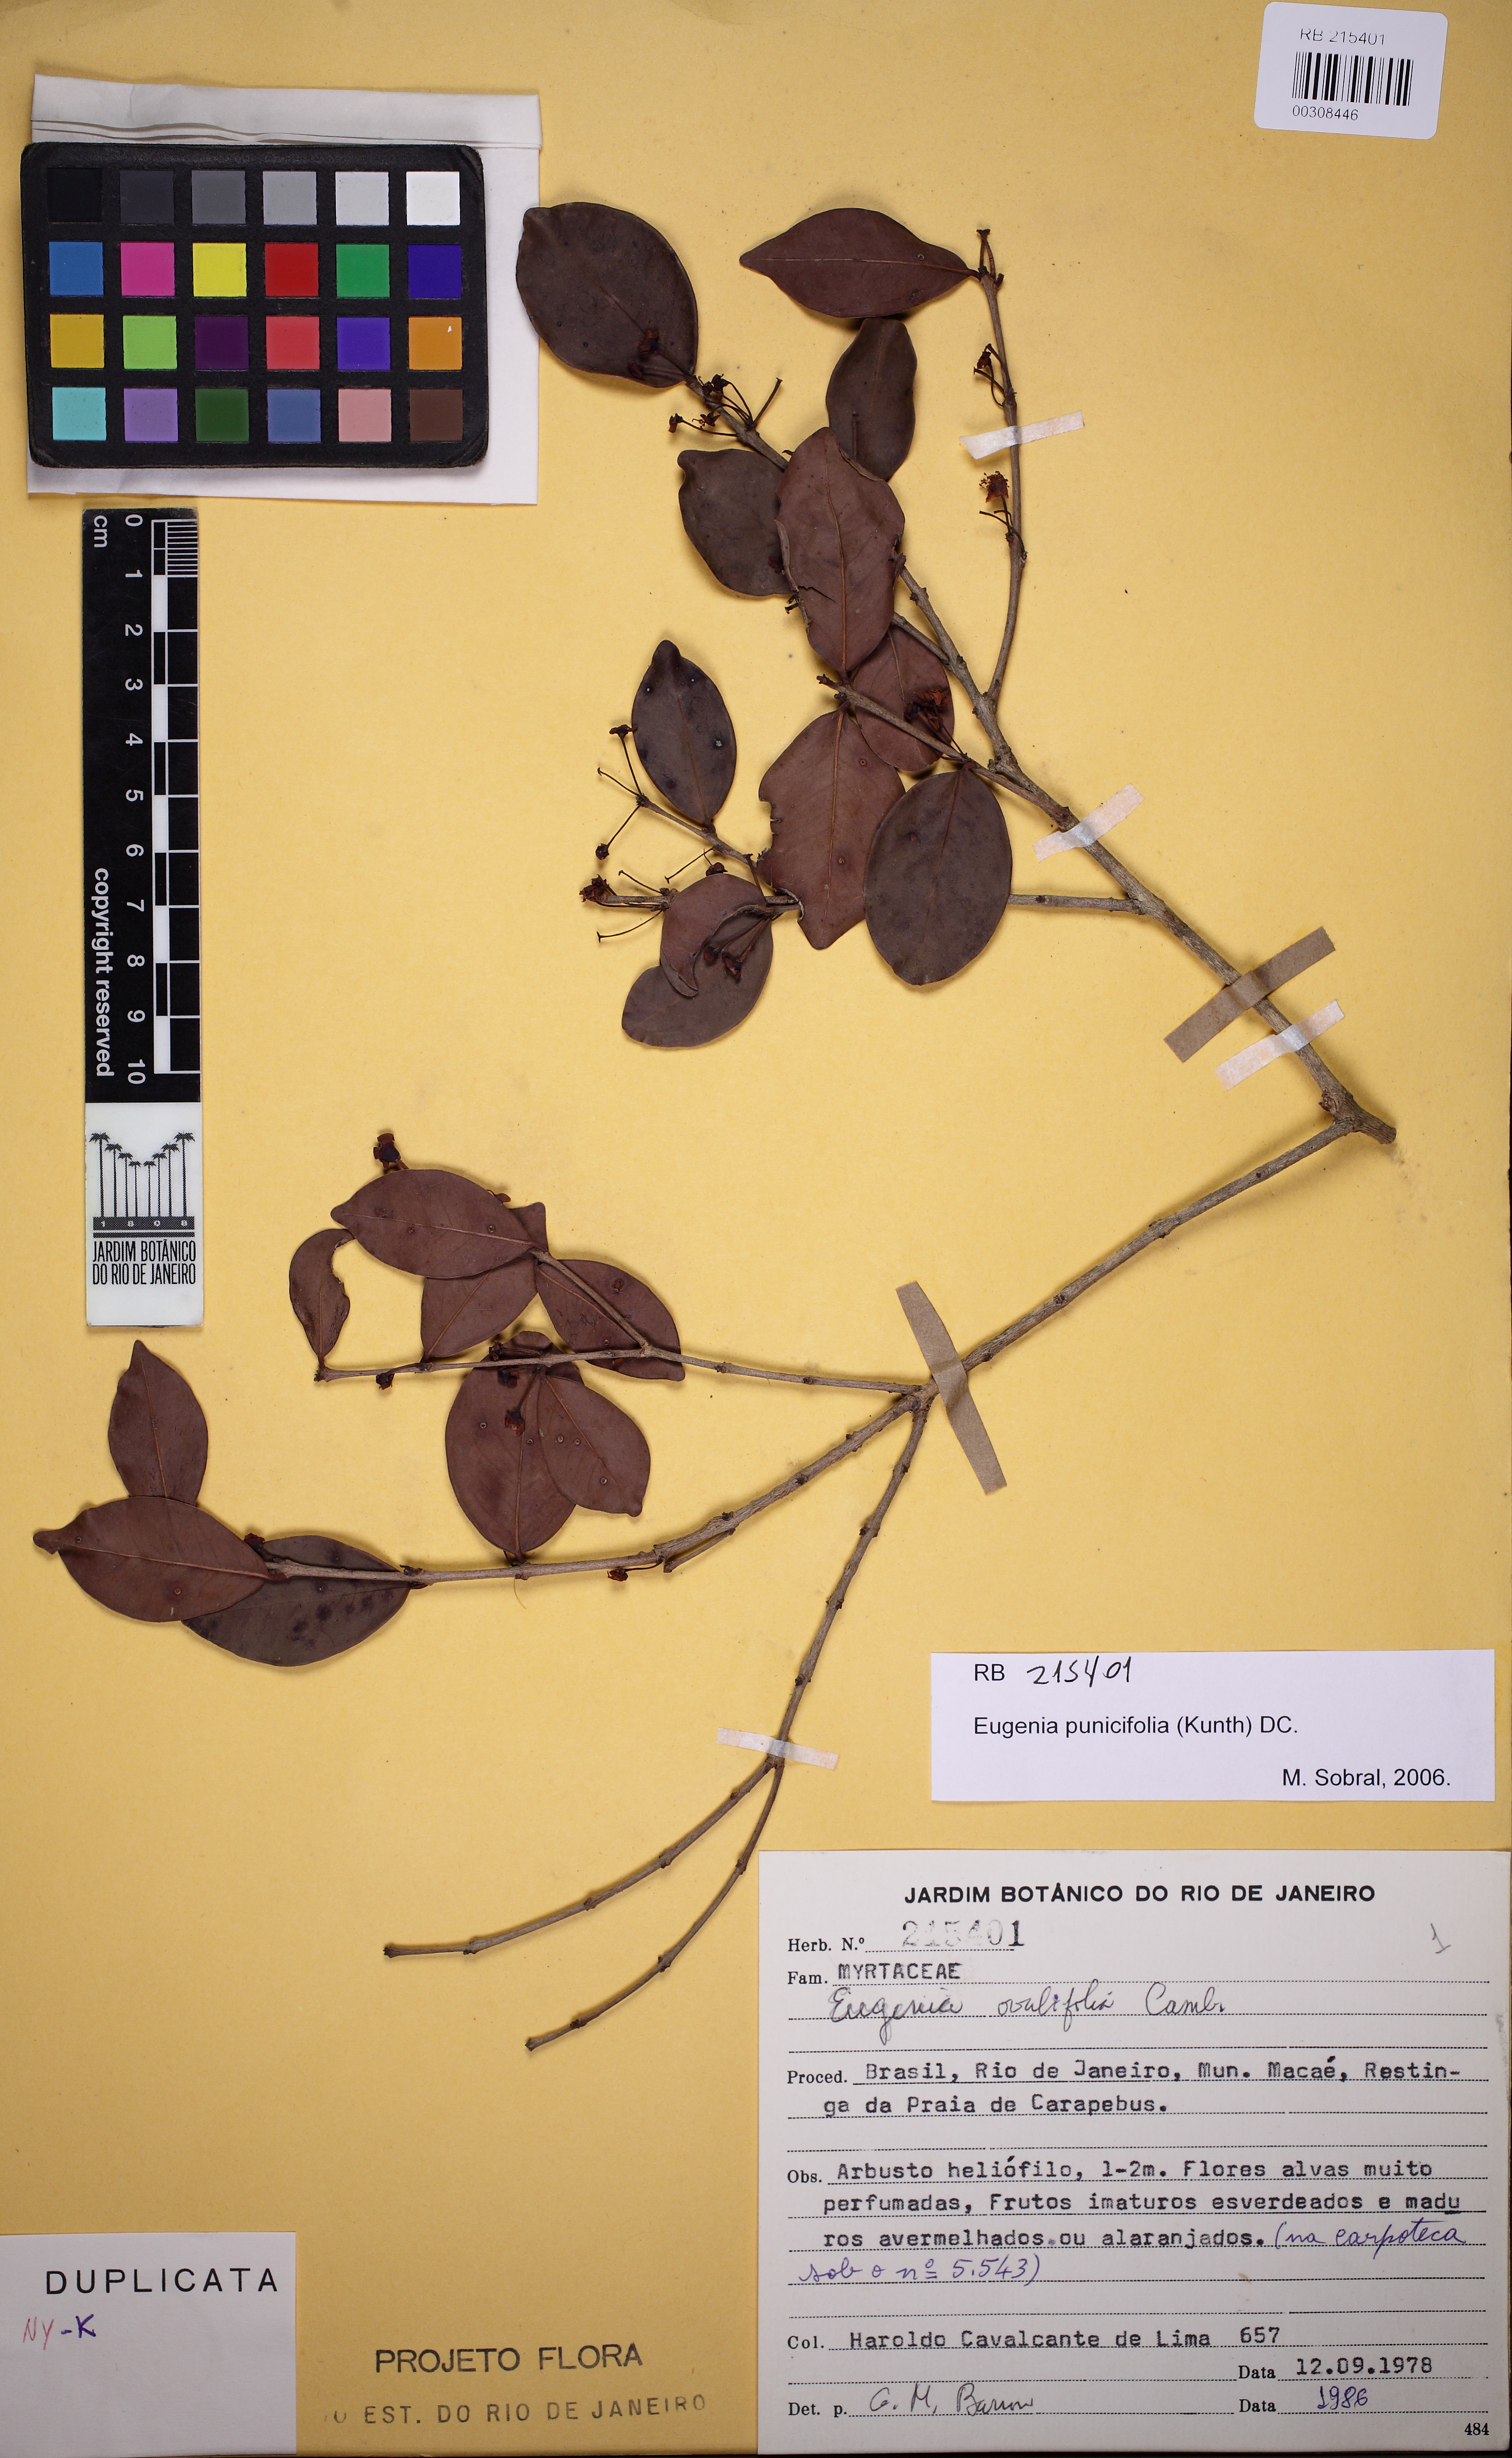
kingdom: Plantae
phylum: Tracheophyta
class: Magnoliopsida
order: Myrtales
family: Myrtaceae
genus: Eugenia
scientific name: Eugenia punicifolia
